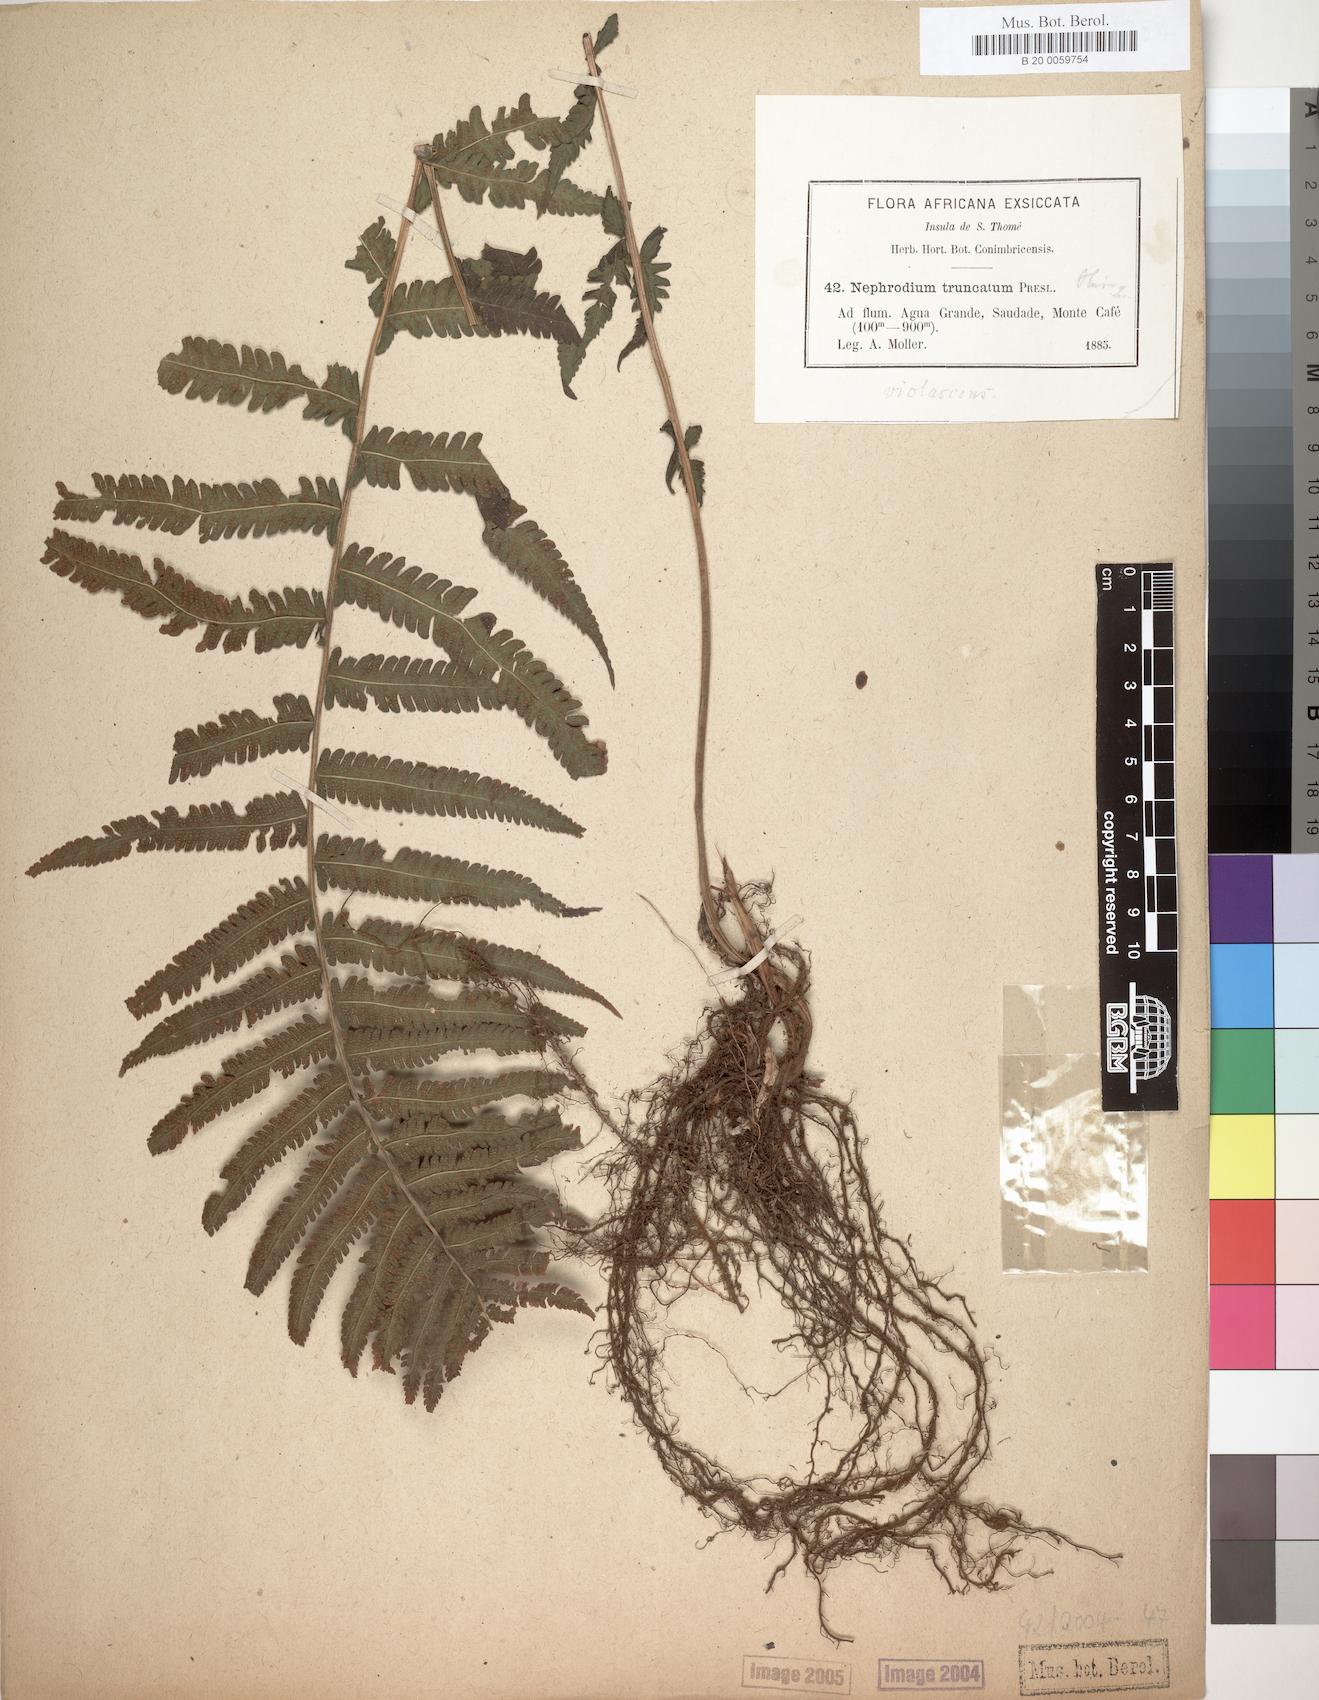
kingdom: Plantae
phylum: Tracheophyta
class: Polypodiopsida
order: Polypodiales
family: Thelypteridaceae
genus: Christella
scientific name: Christella dentata
